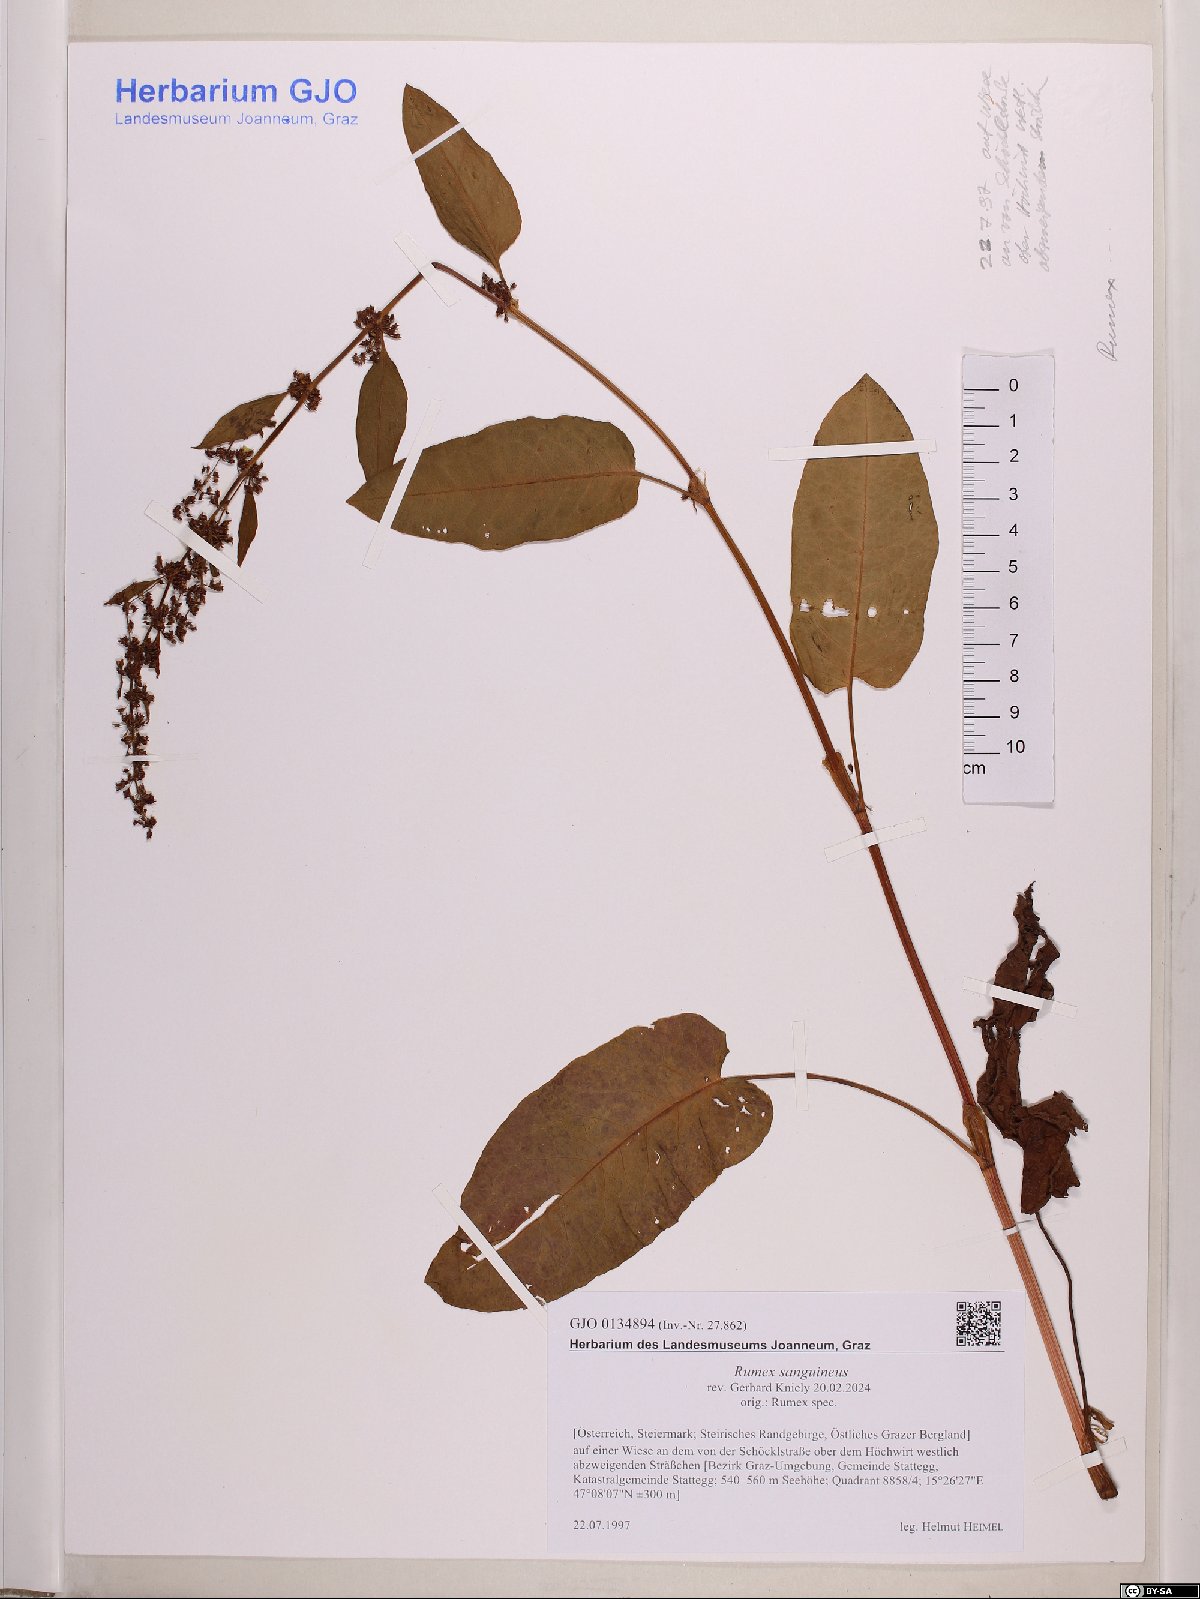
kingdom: Plantae
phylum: Tracheophyta
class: Magnoliopsida
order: Caryophyllales
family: Polygonaceae
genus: Rumex
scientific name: Rumex sanguineus
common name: Wood dock
